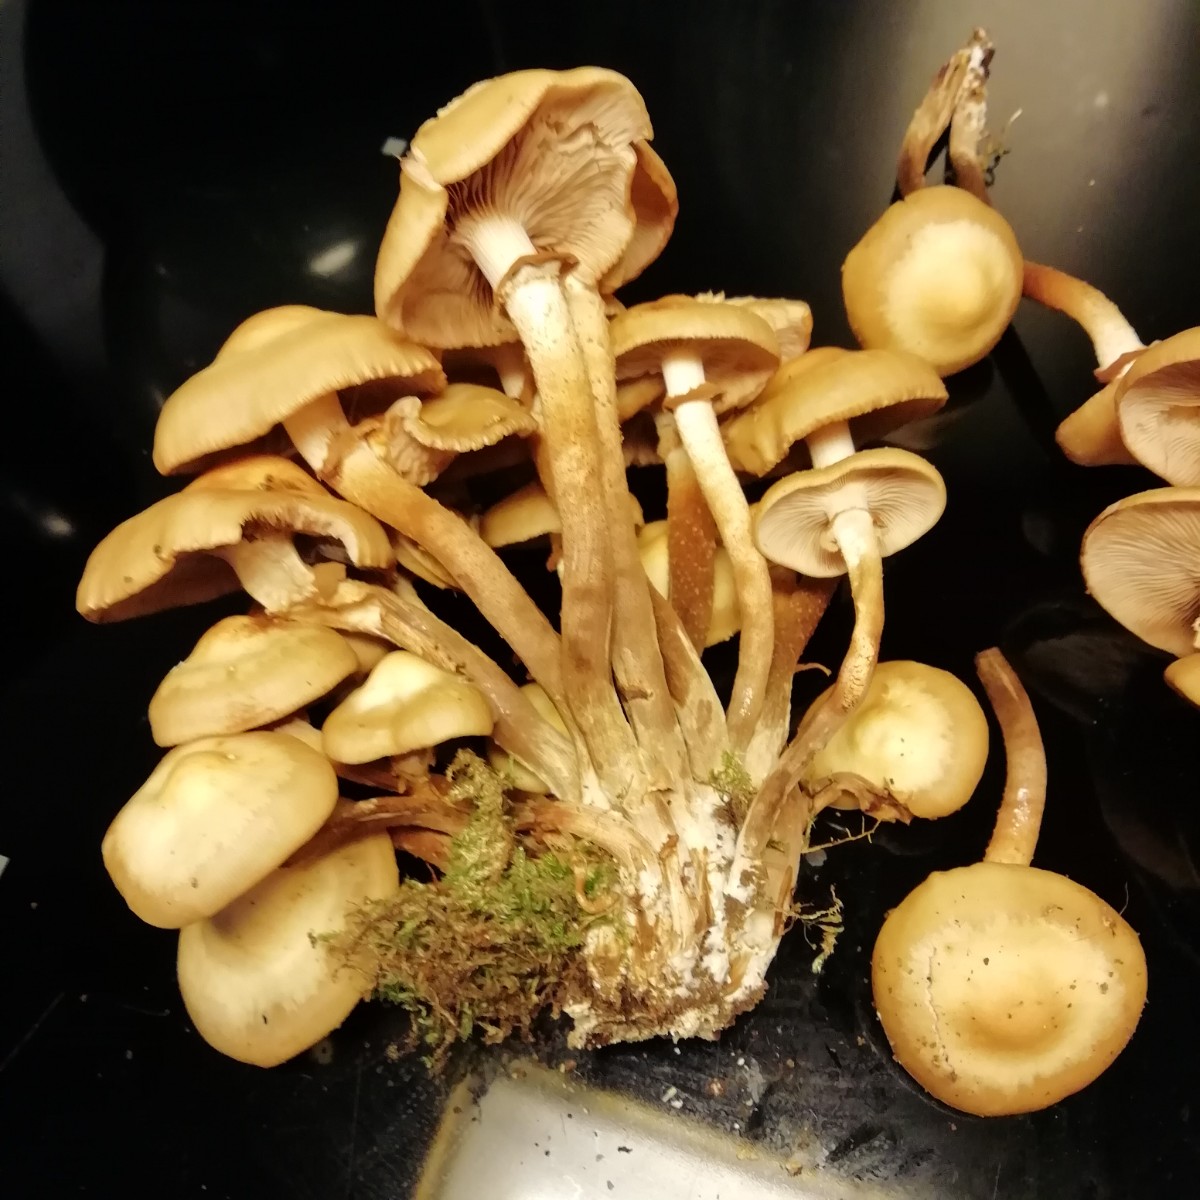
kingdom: Fungi
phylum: Basidiomycota
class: Agaricomycetes
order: Agaricales
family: Strophariaceae
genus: Kuehneromyces
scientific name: Kuehneromyces mutabilis
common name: foranderlig skælhat
